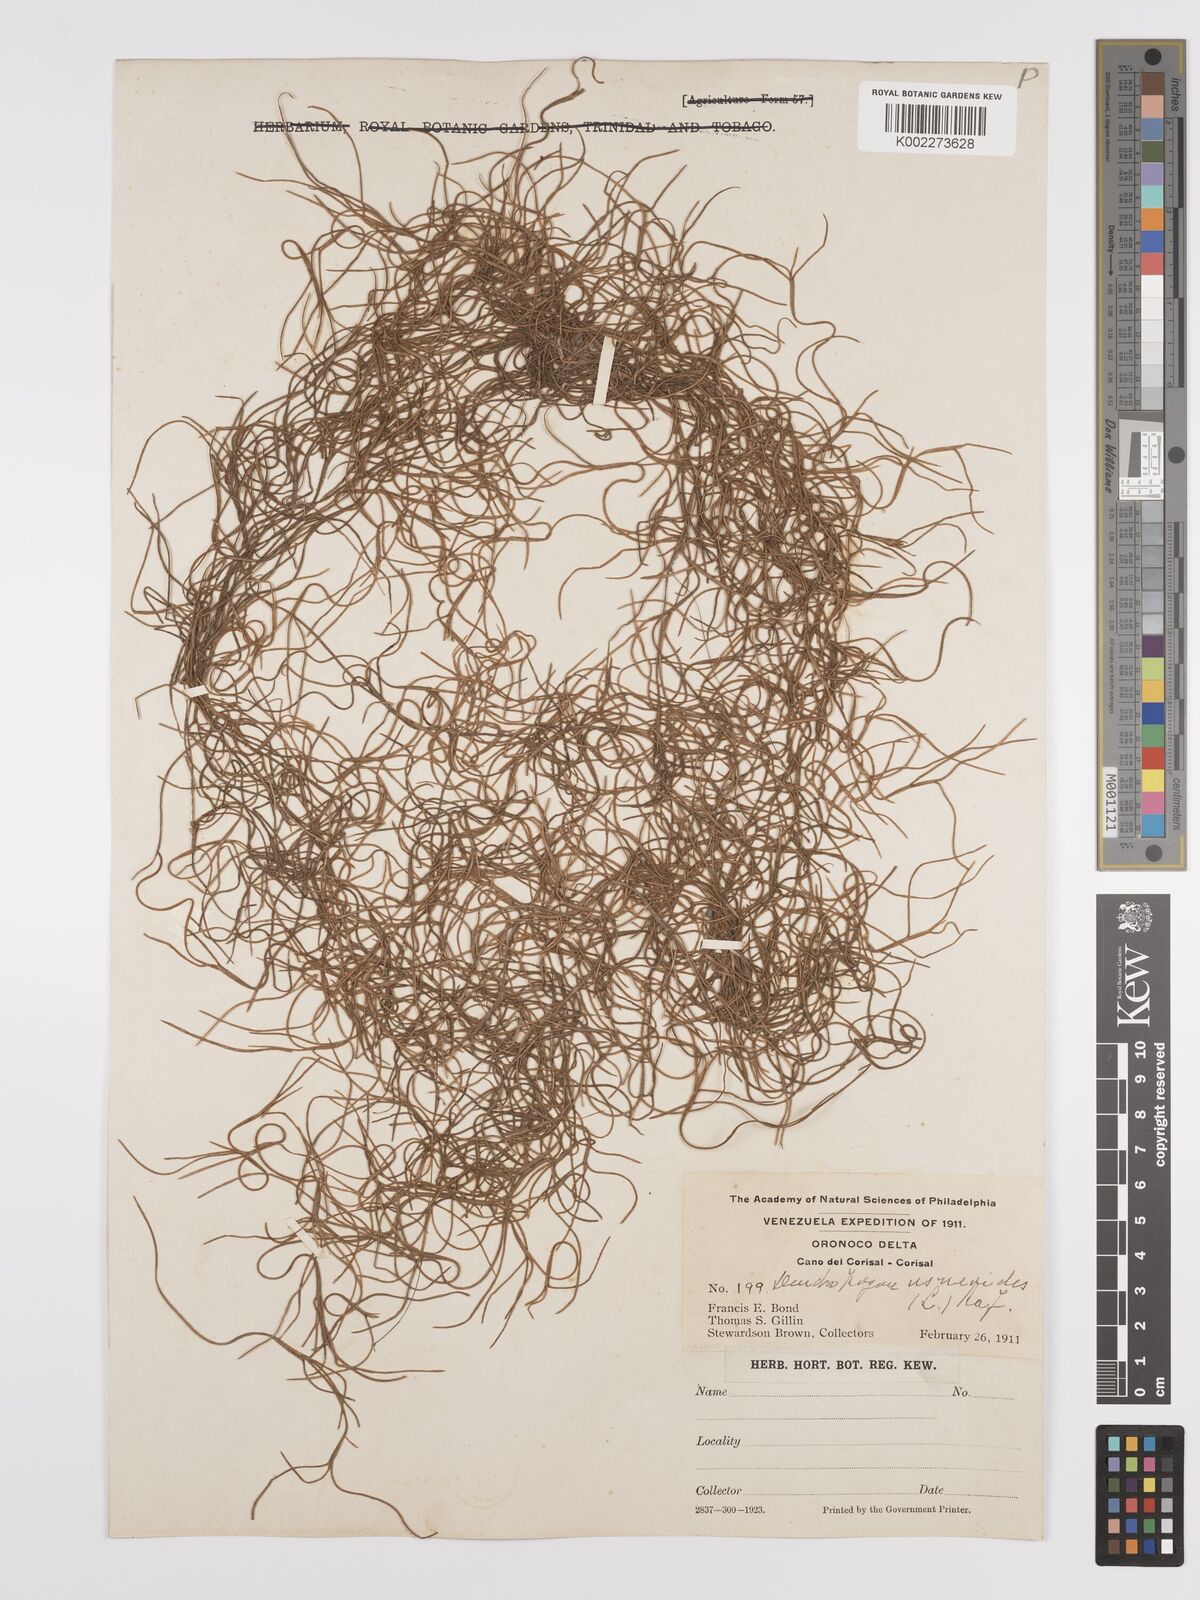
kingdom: Plantae
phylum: Tracheophyta
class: Liliopsida
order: Poales
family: Bromeliaceae
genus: Tillandsia
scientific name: Tillandsia usneoides
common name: Spanish moss
